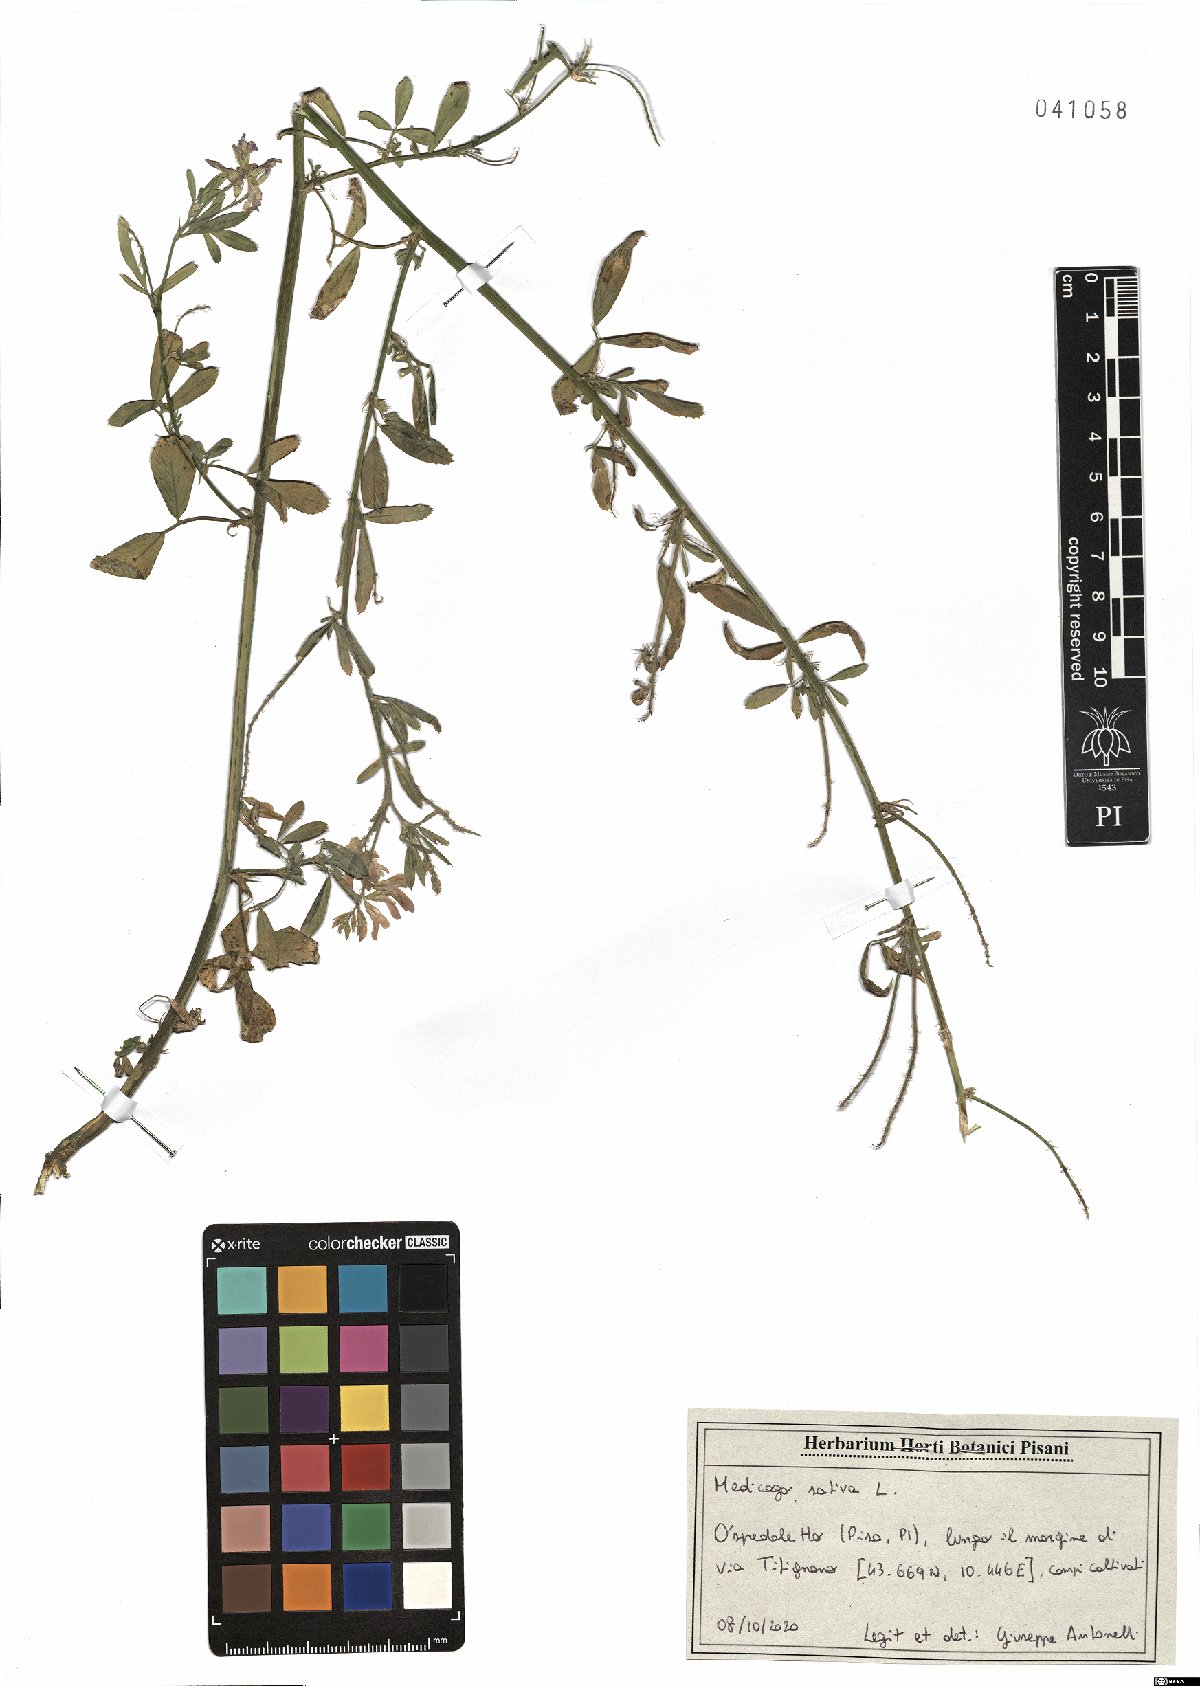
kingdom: Plantae
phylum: Tracheophyta
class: Magnoliopsida
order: Fabales
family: Fabaceae
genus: Medicago
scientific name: Medicago sativa
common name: Alfalfa
